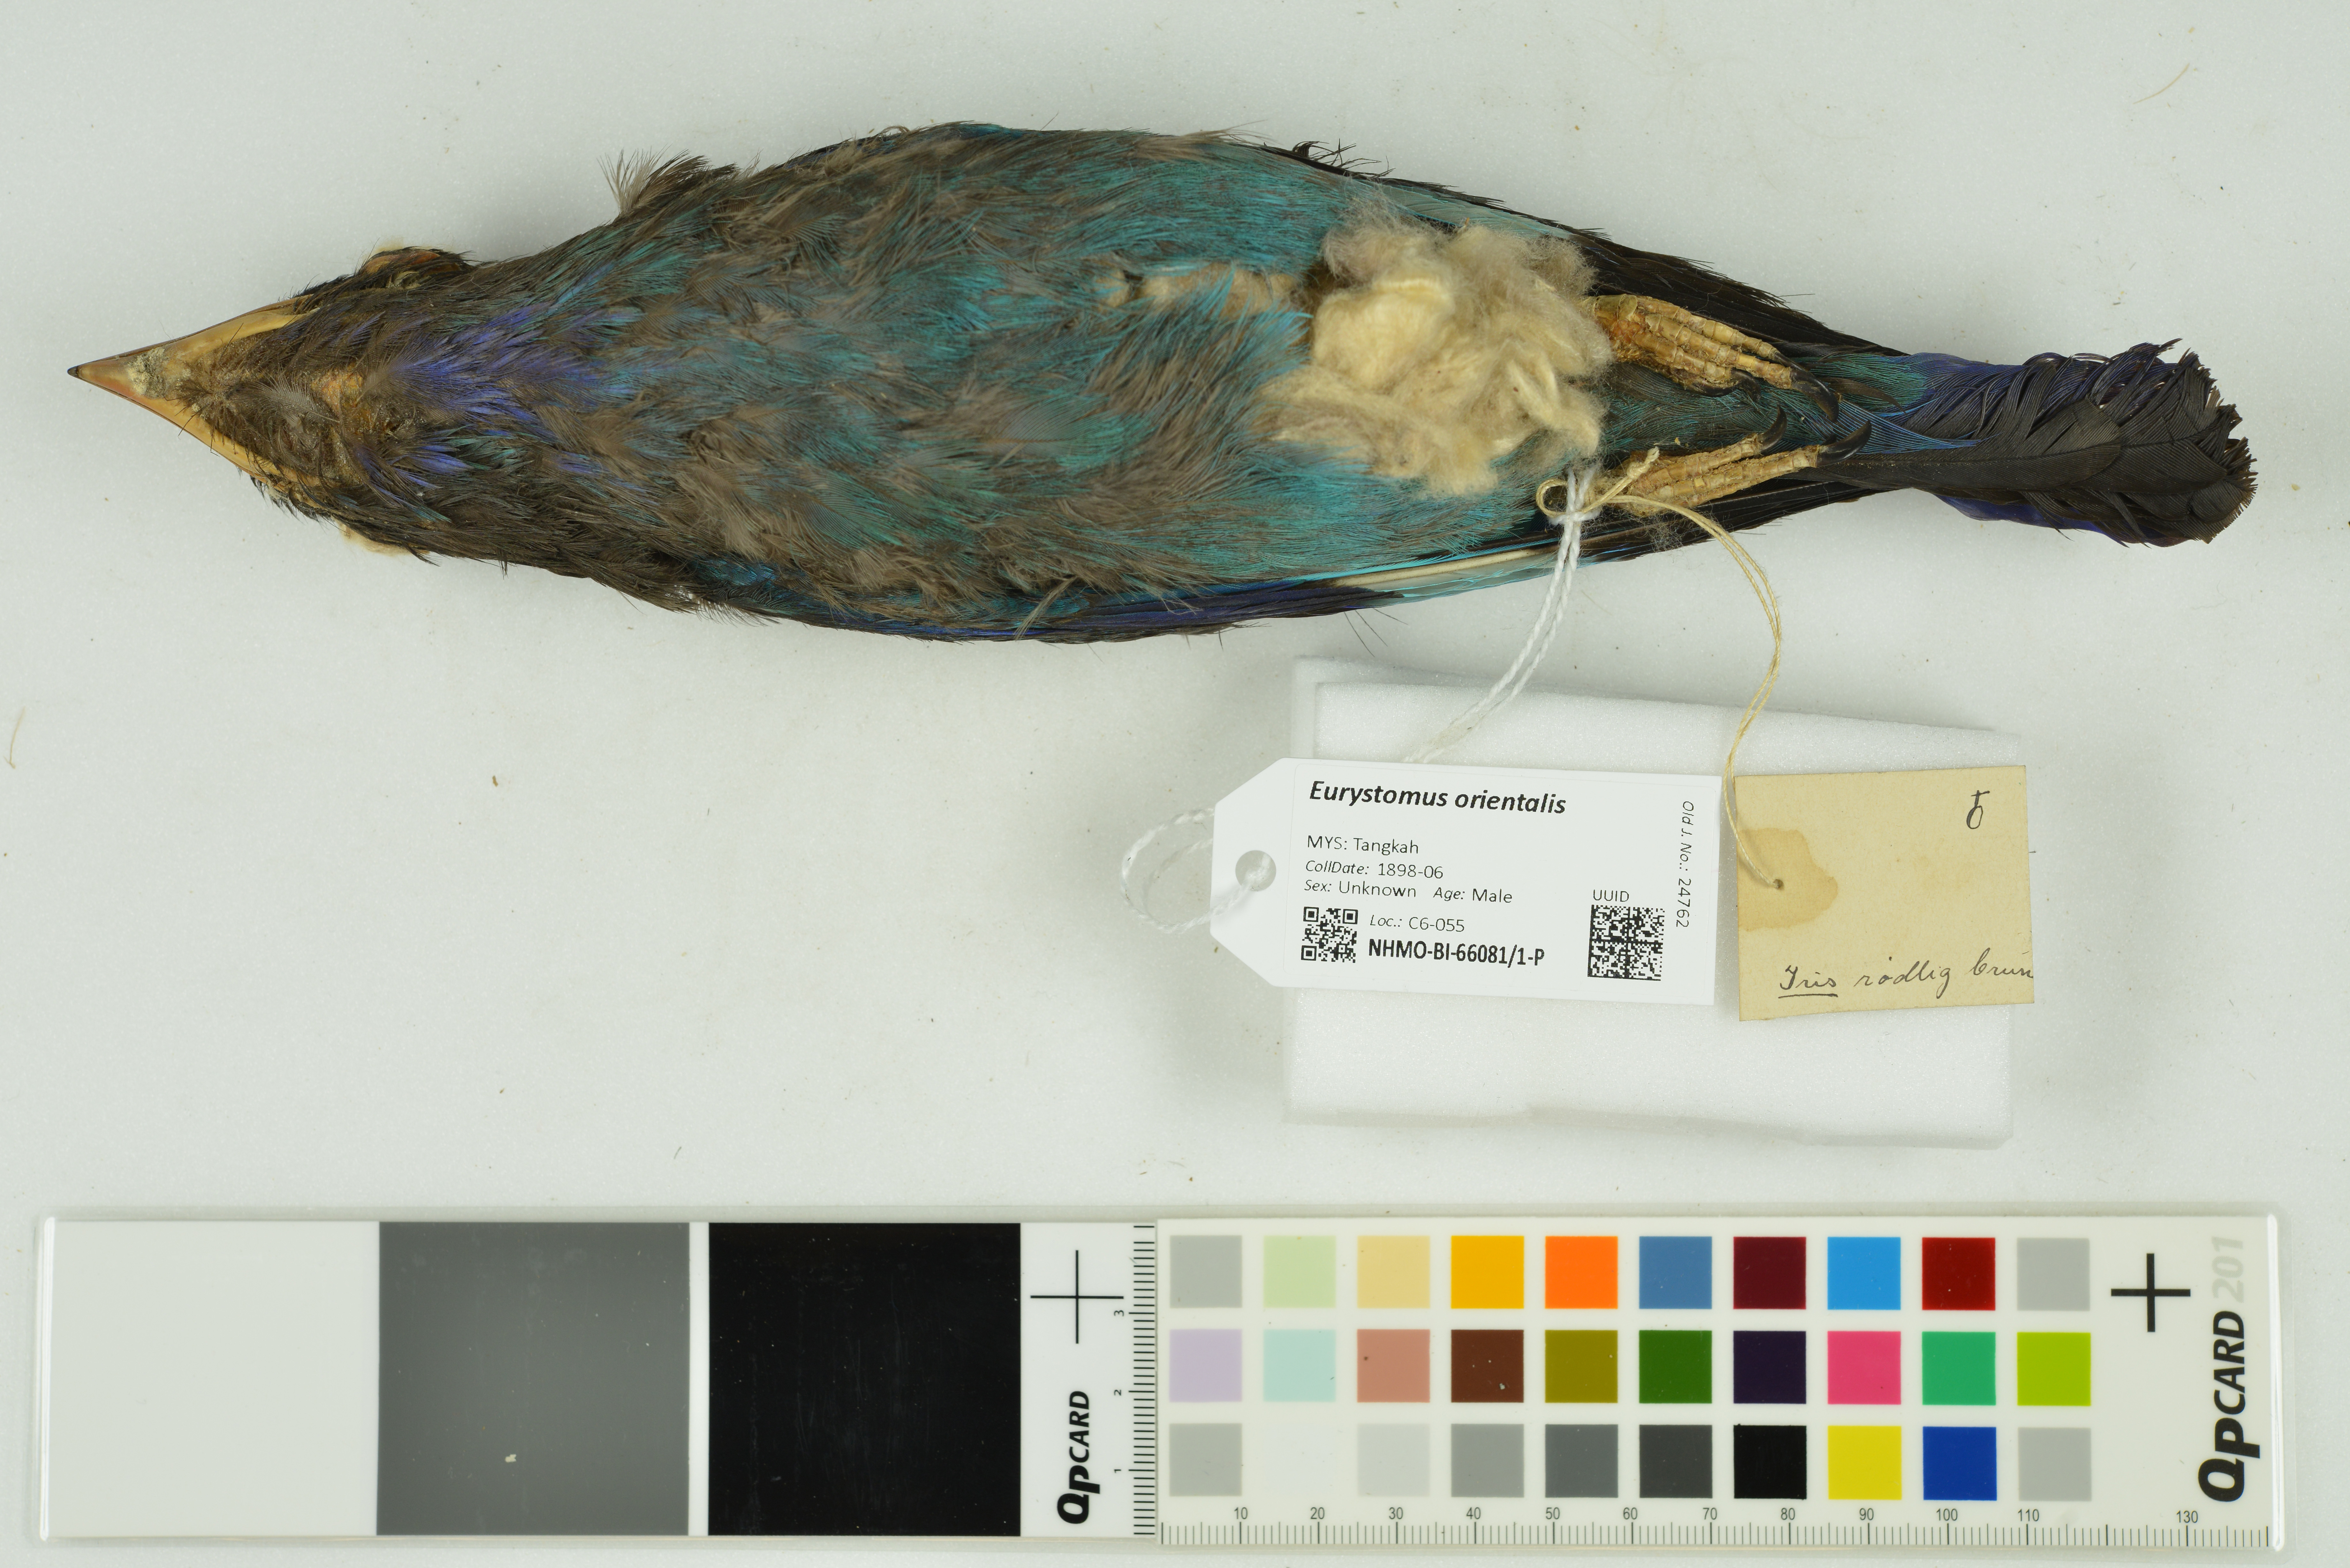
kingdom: Animalia
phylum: Chordata
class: Aves
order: Coraciiformes
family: Coraciidae
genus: Eurystomus
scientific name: Eurystomus orientalis
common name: Oriental dollarbird
